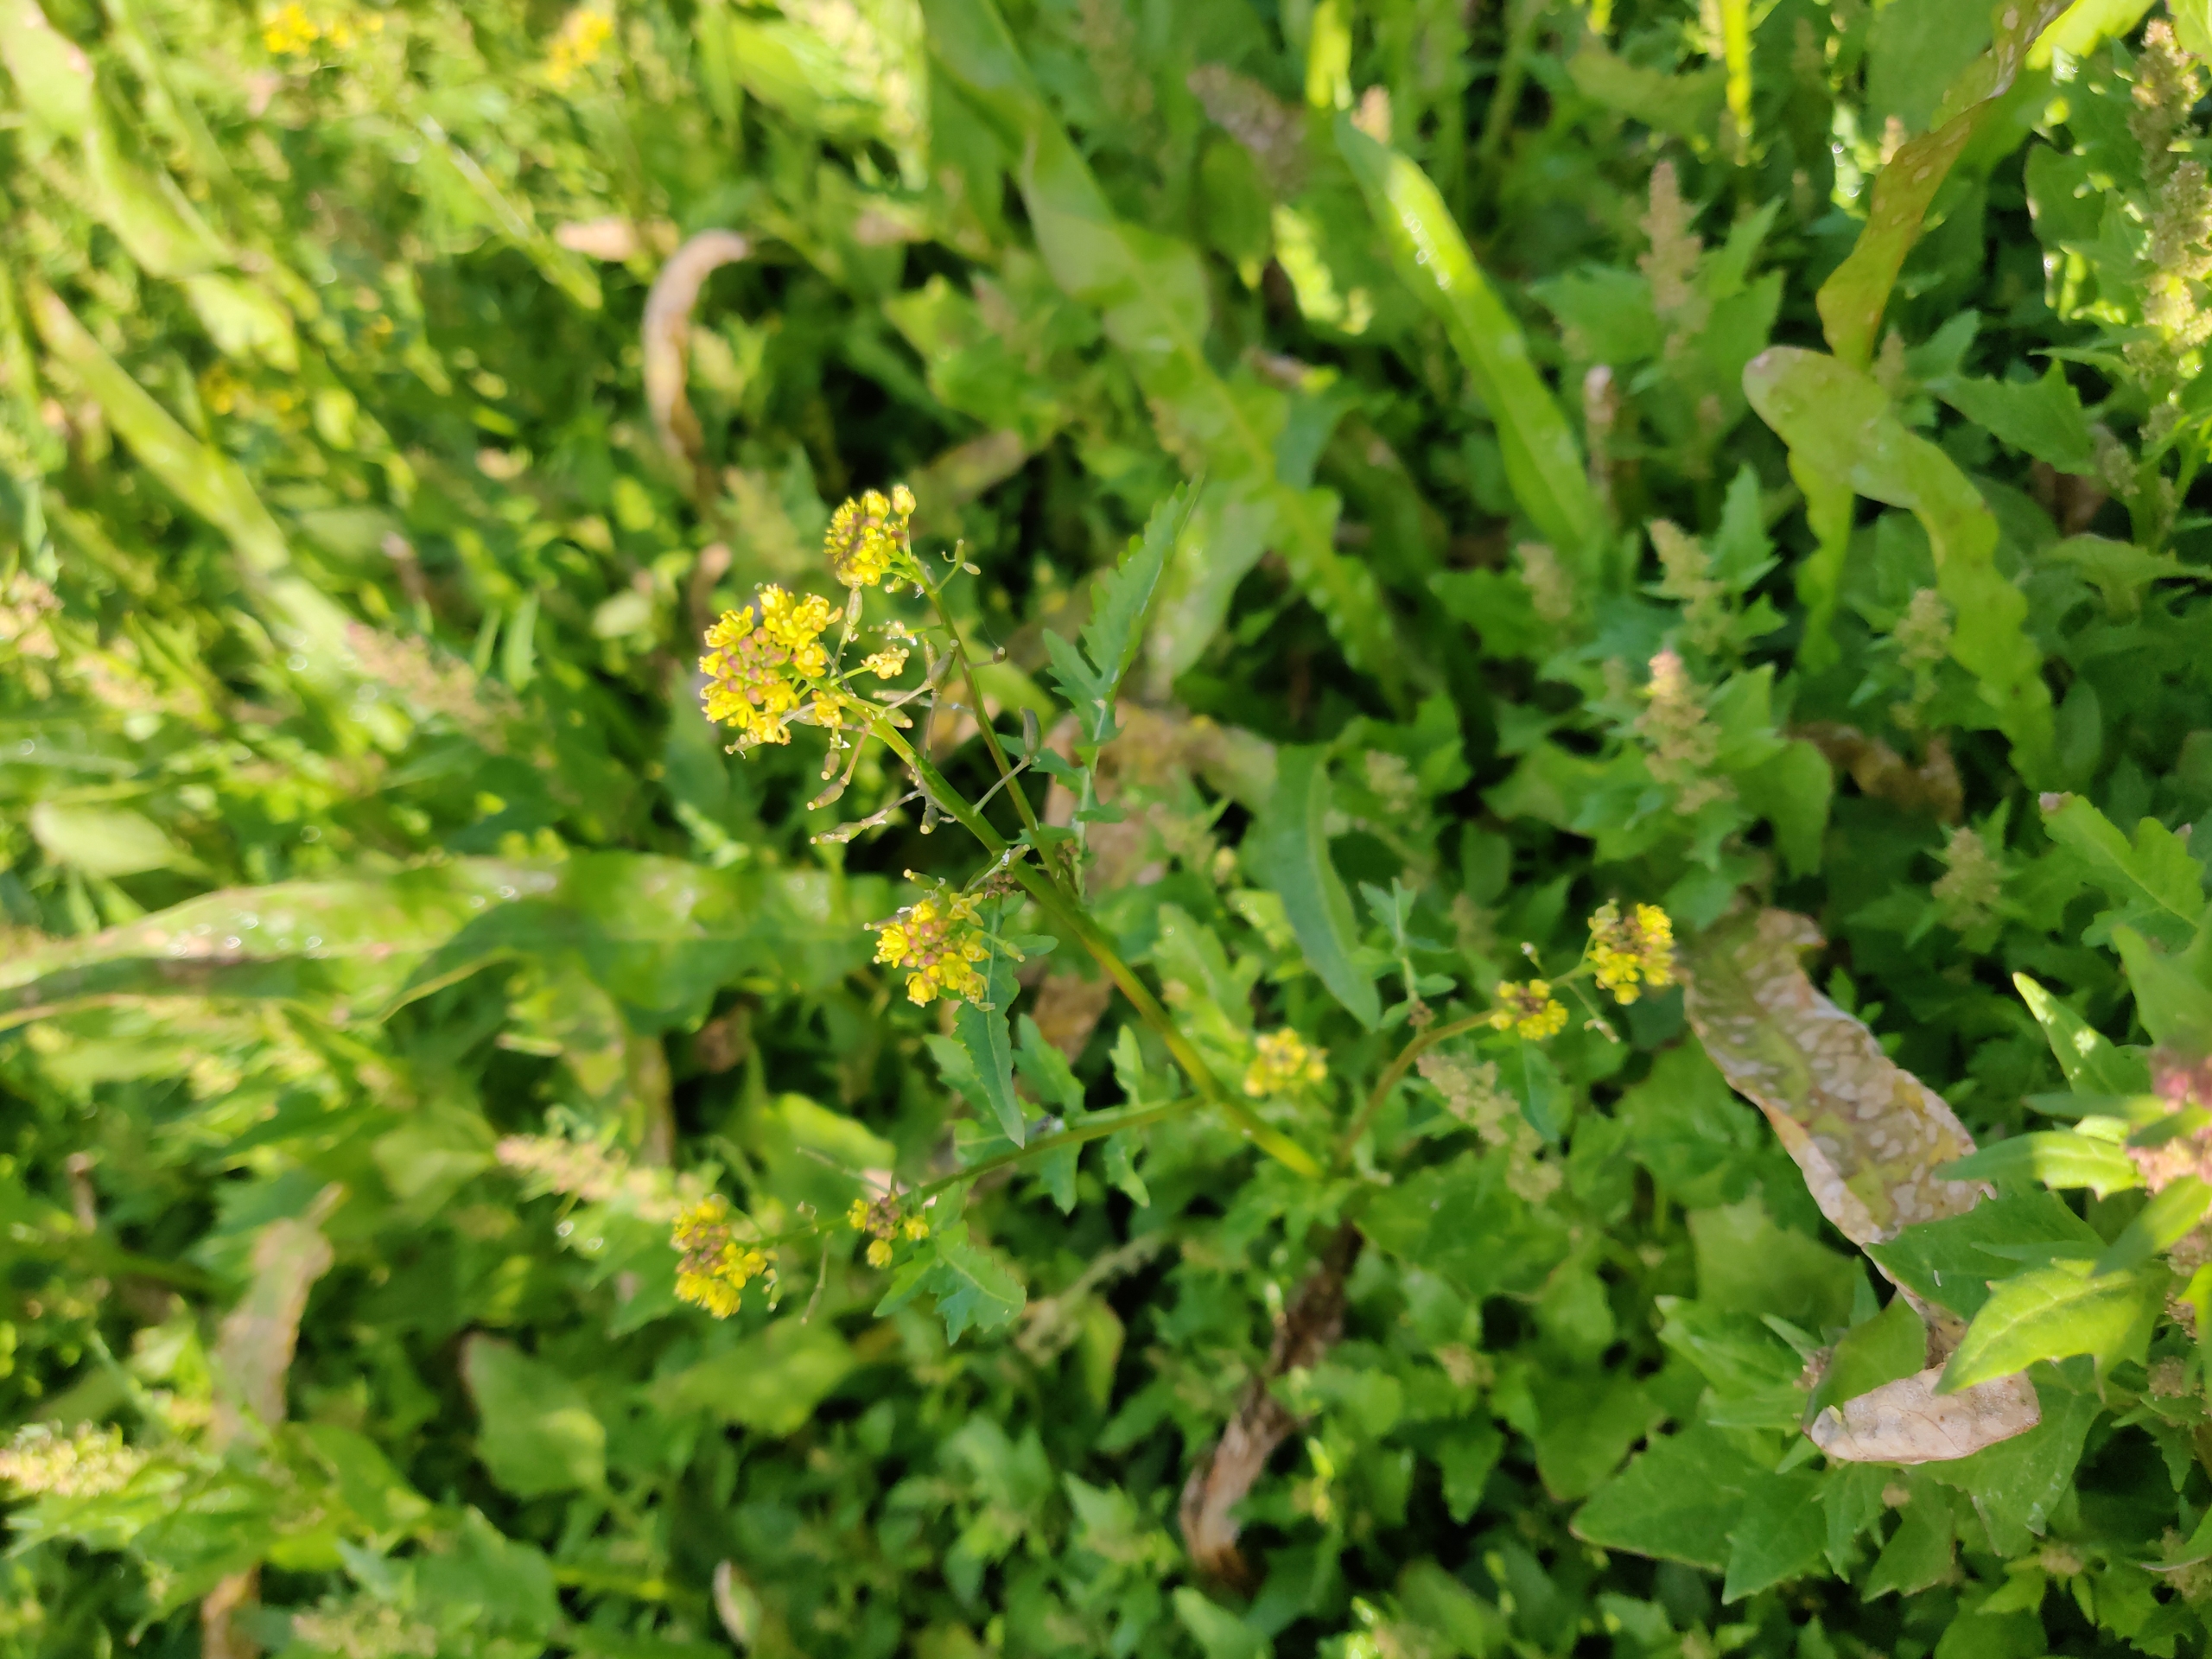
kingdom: Plantae
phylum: Tracheophyta
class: Magnoliopsida
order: Brassicales
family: Brassicaceae
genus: Rorippa
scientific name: Rorippa palustris
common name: Kær-guldkarse
